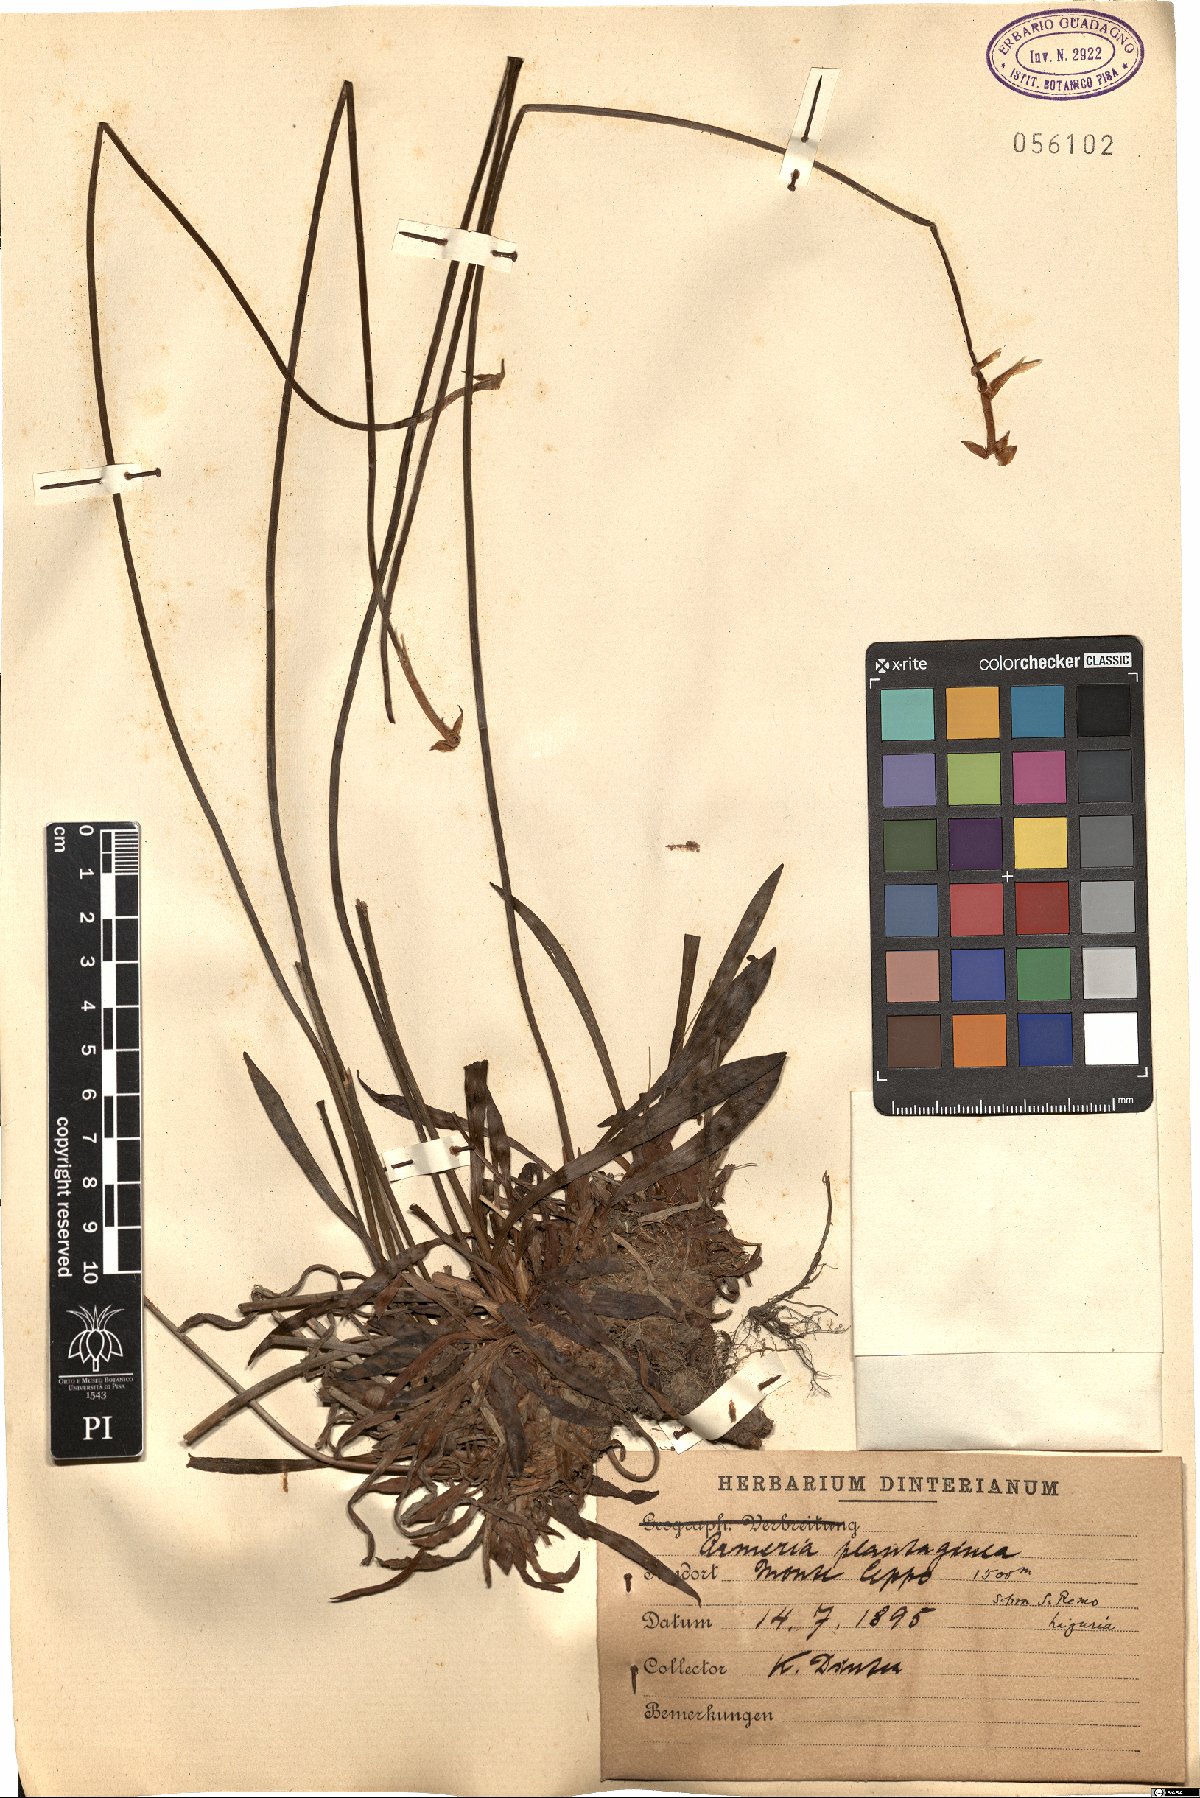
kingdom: Plantae
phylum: Tracheophyta
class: Magnoliopsida
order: Caryophyllales
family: Plumbaginaceae
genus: Armeria
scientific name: Armeria arenaria
